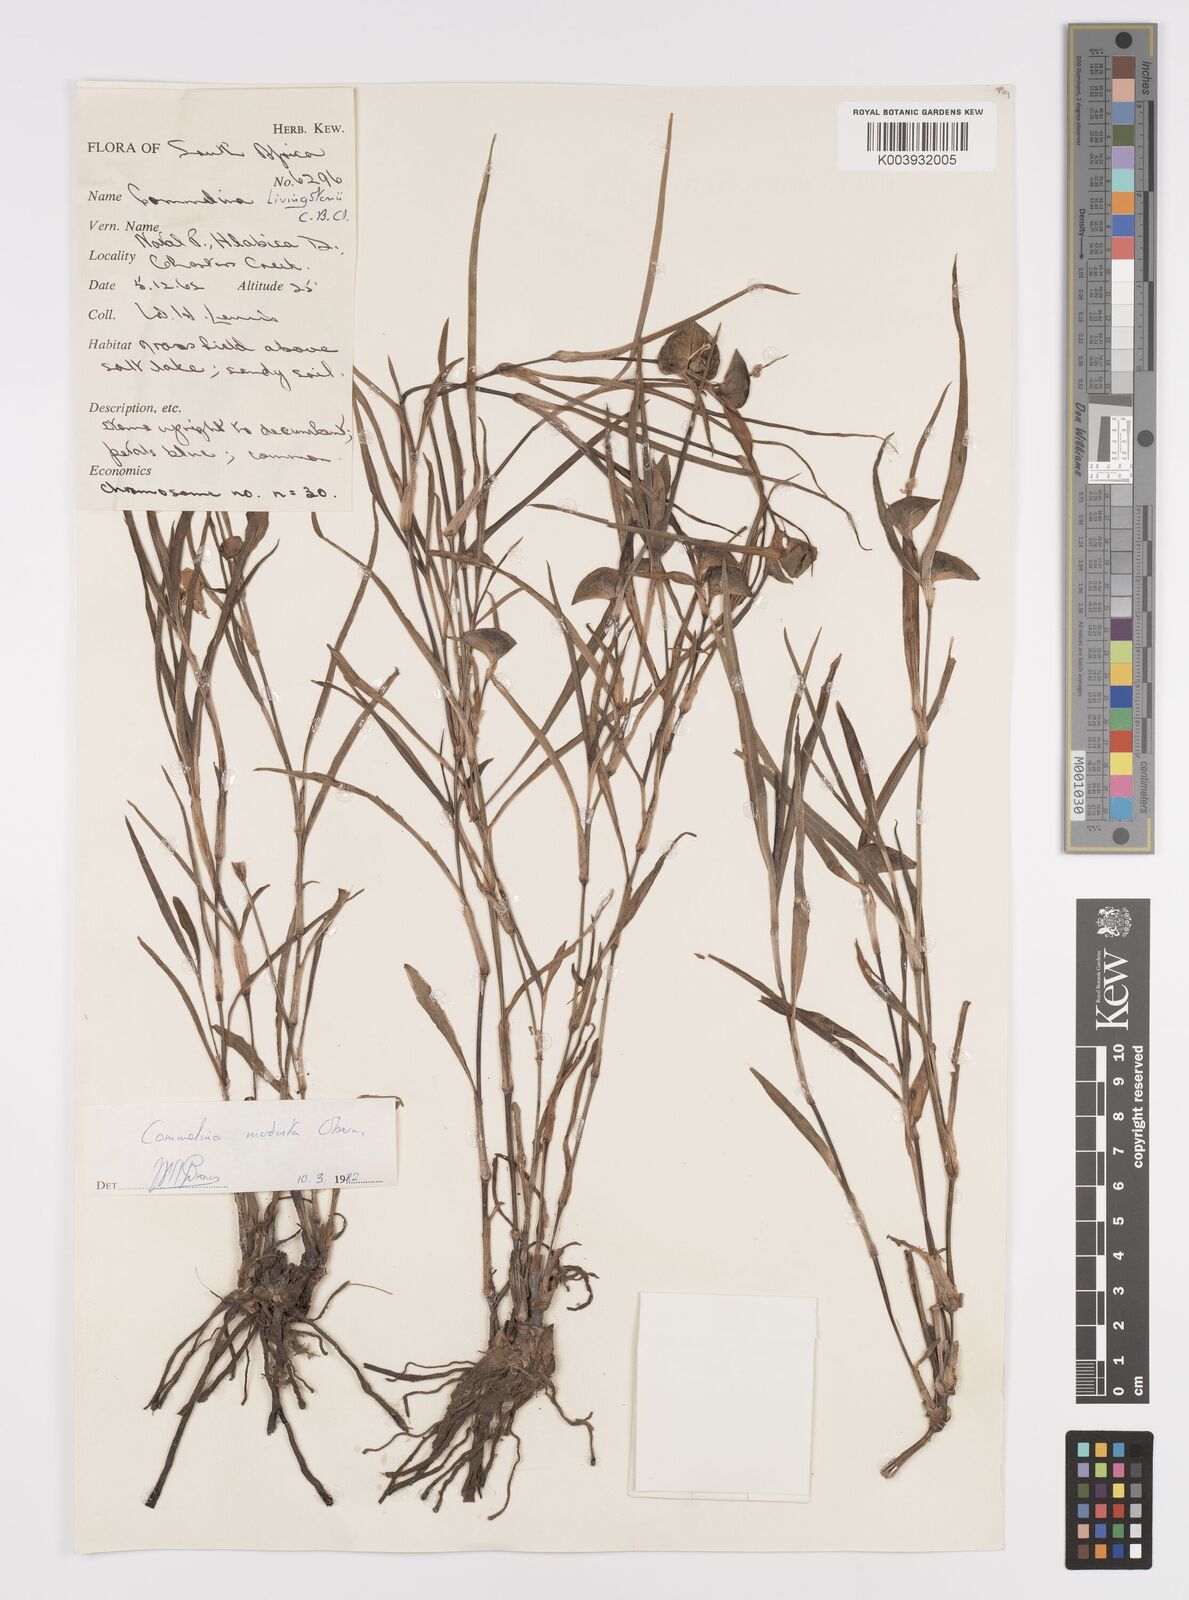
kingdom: Plantae
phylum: Tracheophyta
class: Liliopsida
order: Commelinales
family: Commelinaceae
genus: Commelina
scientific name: Commelina modesta
